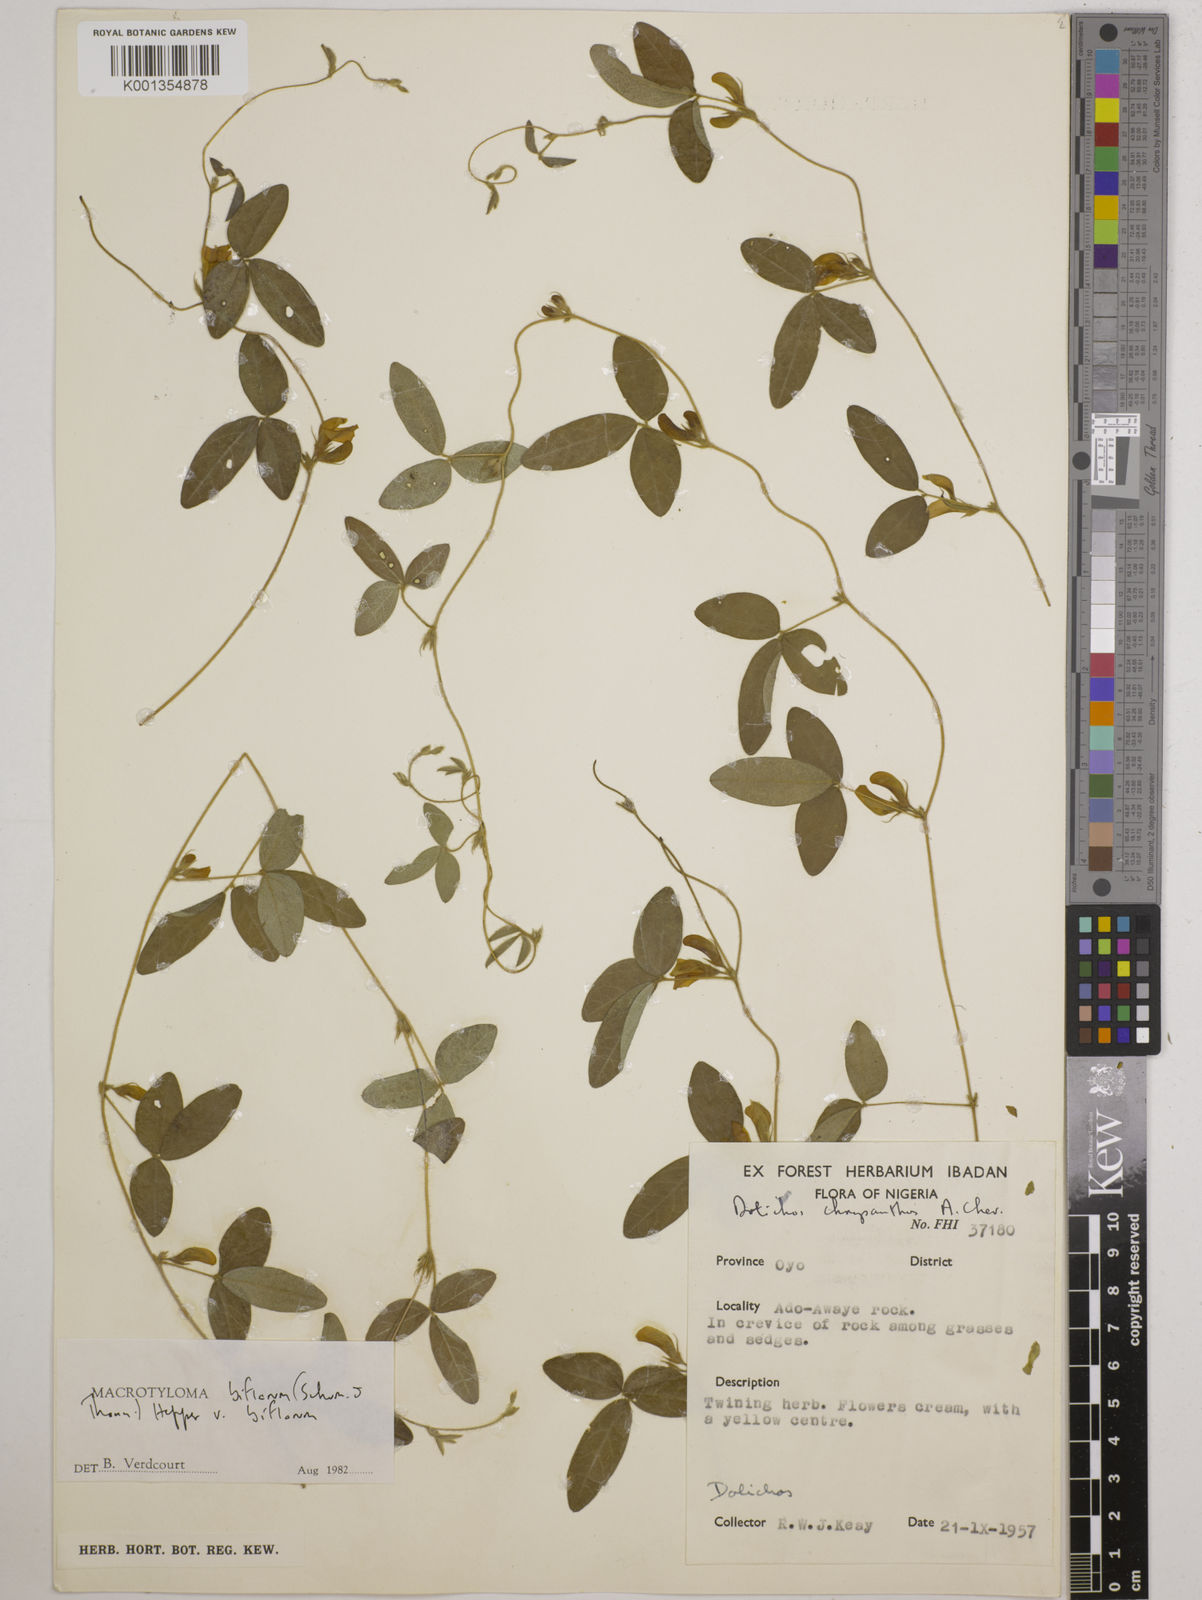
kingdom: Plantae
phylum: Tracheophyta
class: Magnoliopsida
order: Fabales
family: Fabaceae
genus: Macrotyloma
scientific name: Macrotyloma biflorum
